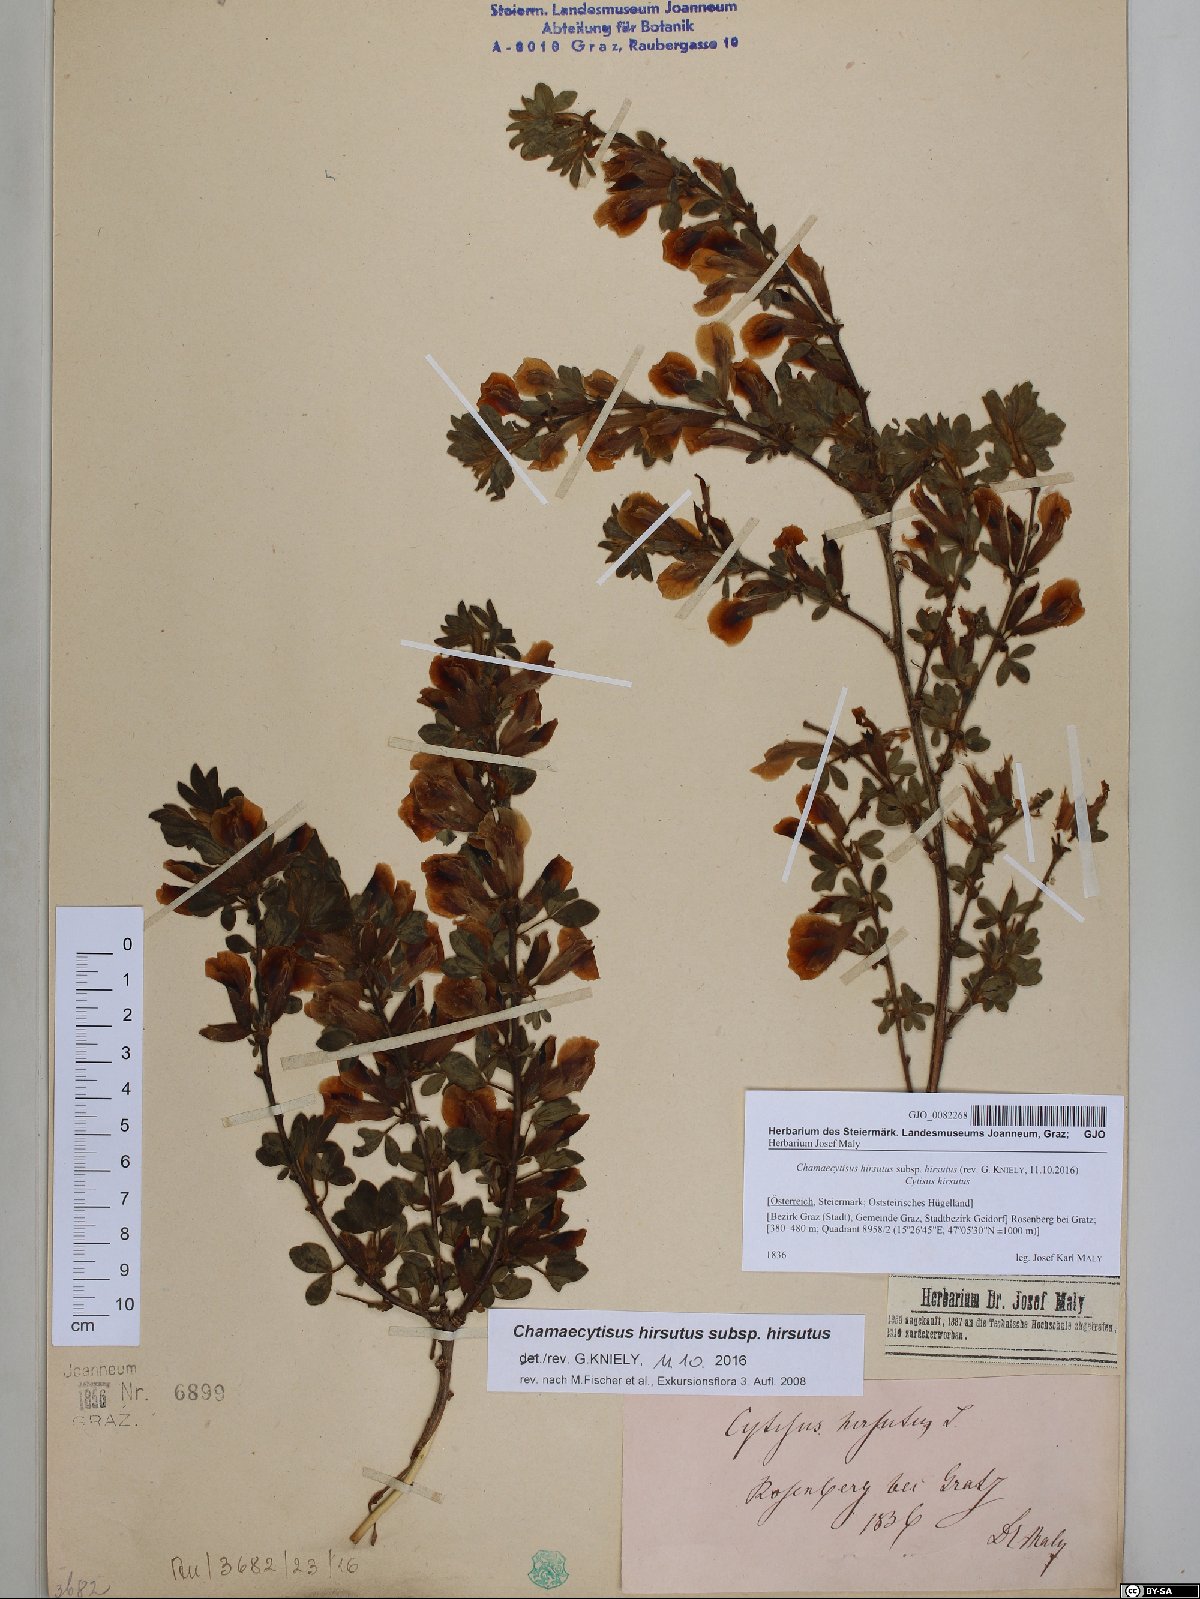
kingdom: Plantae
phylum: Tracheophyta
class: Magnoliopsida
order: Fabales
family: Fabaceae
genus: Chamaecytisus
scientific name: Chamaecytisus hirsutus
